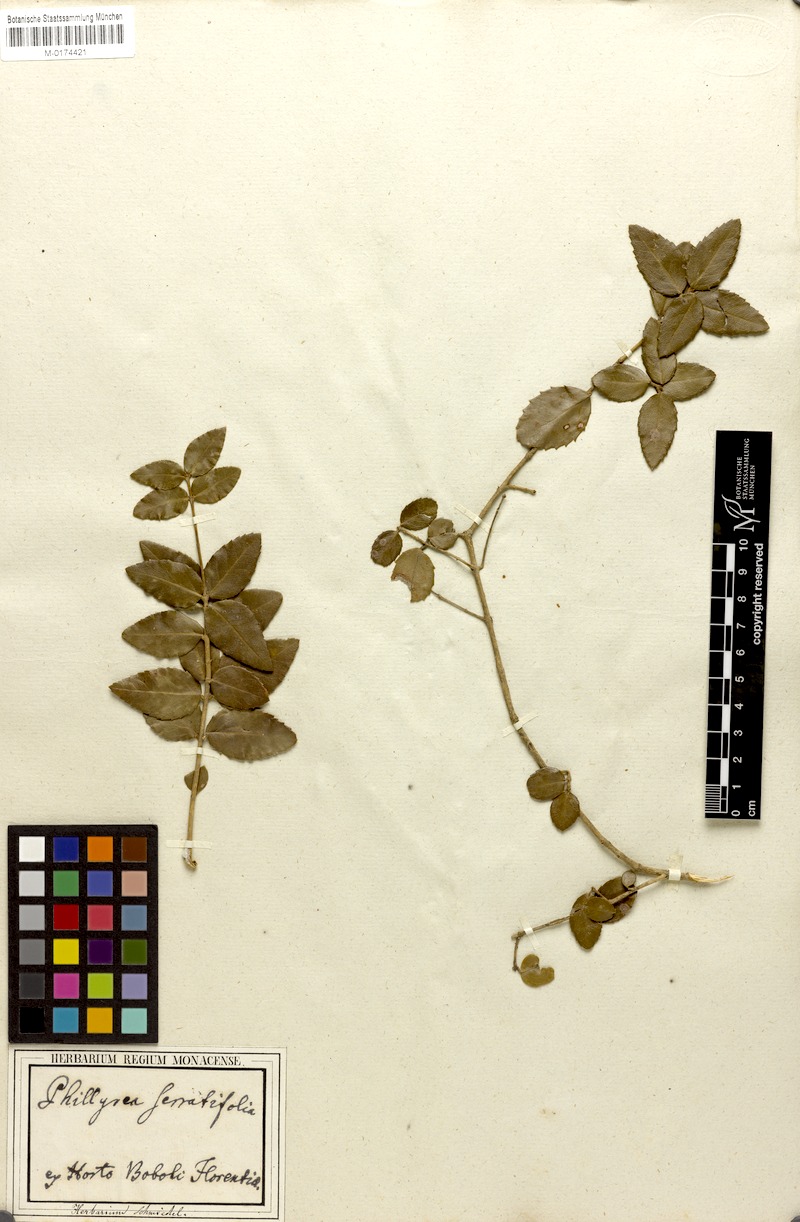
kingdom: Plantae
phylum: Tracheophyta
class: Magnoliopsida
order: Lamiales
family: Oleaceae
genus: Phillyrea
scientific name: Phillyrea latifolia
